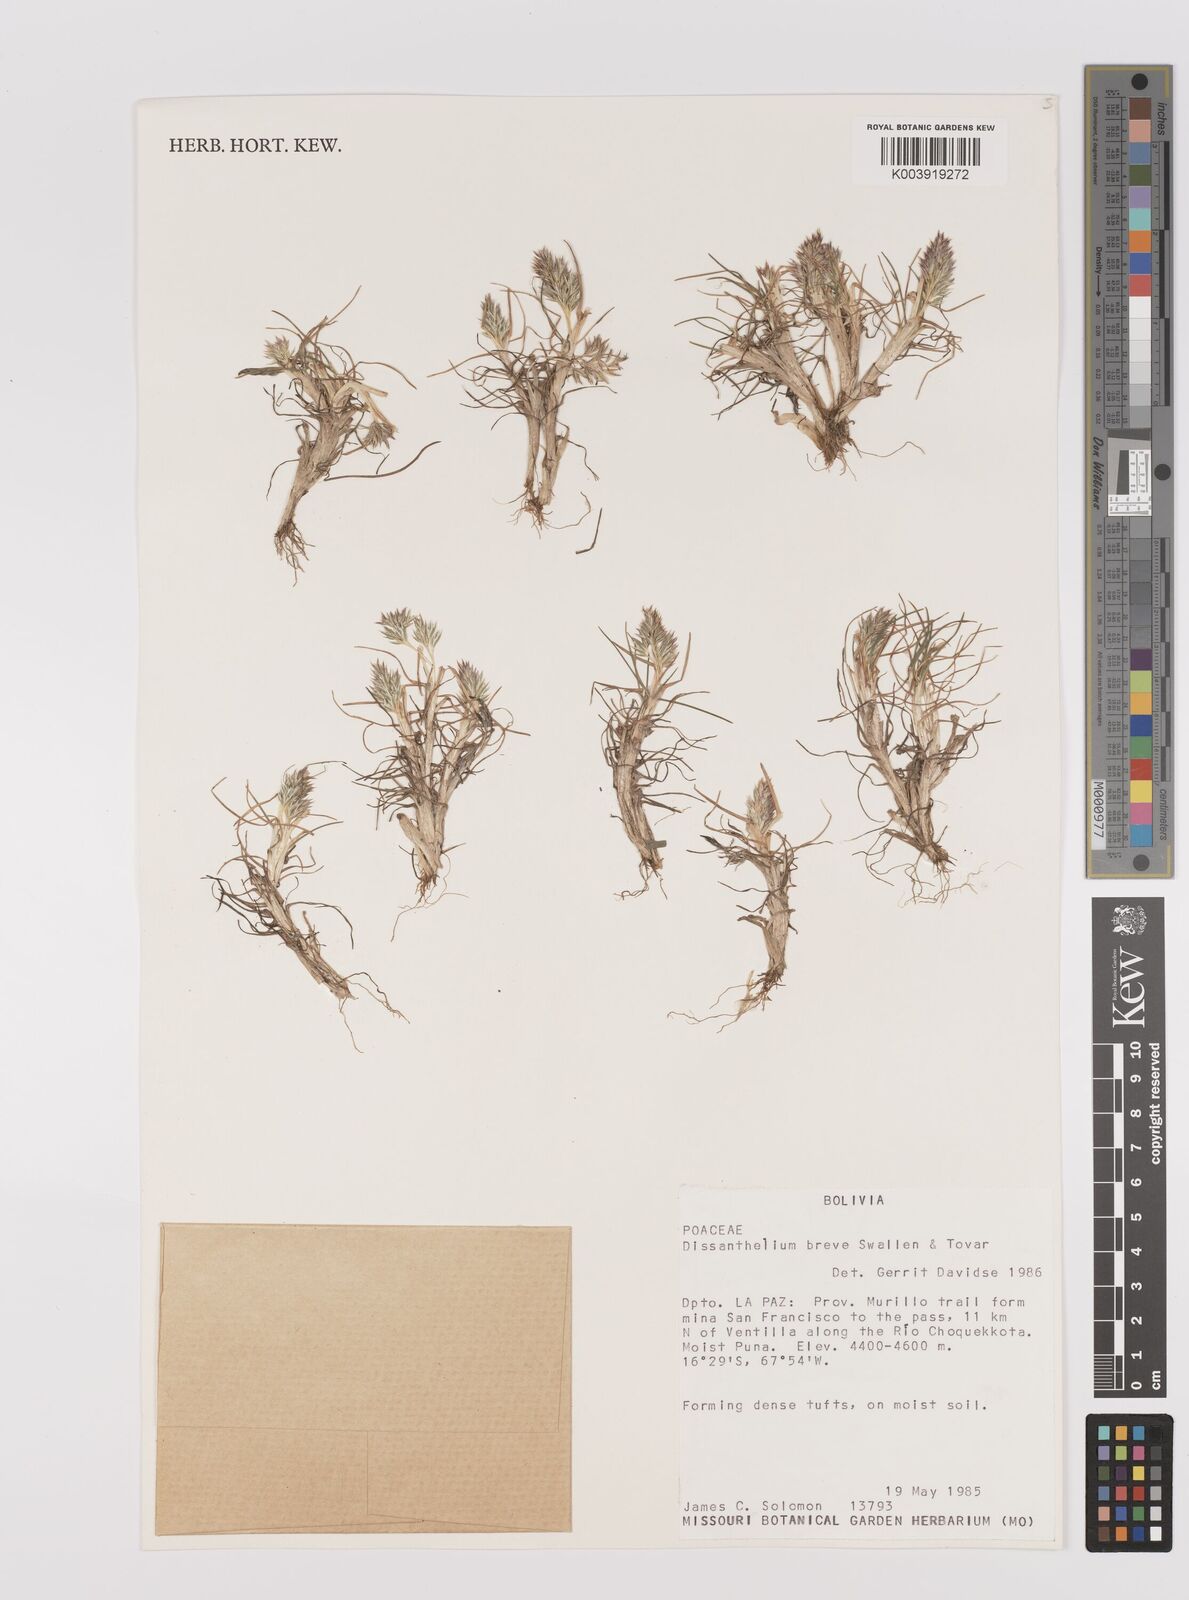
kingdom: Plantae
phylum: Tracheophyta
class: Liliopsida
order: Poales
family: Poaceae
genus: Poa
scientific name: Poa calycina
